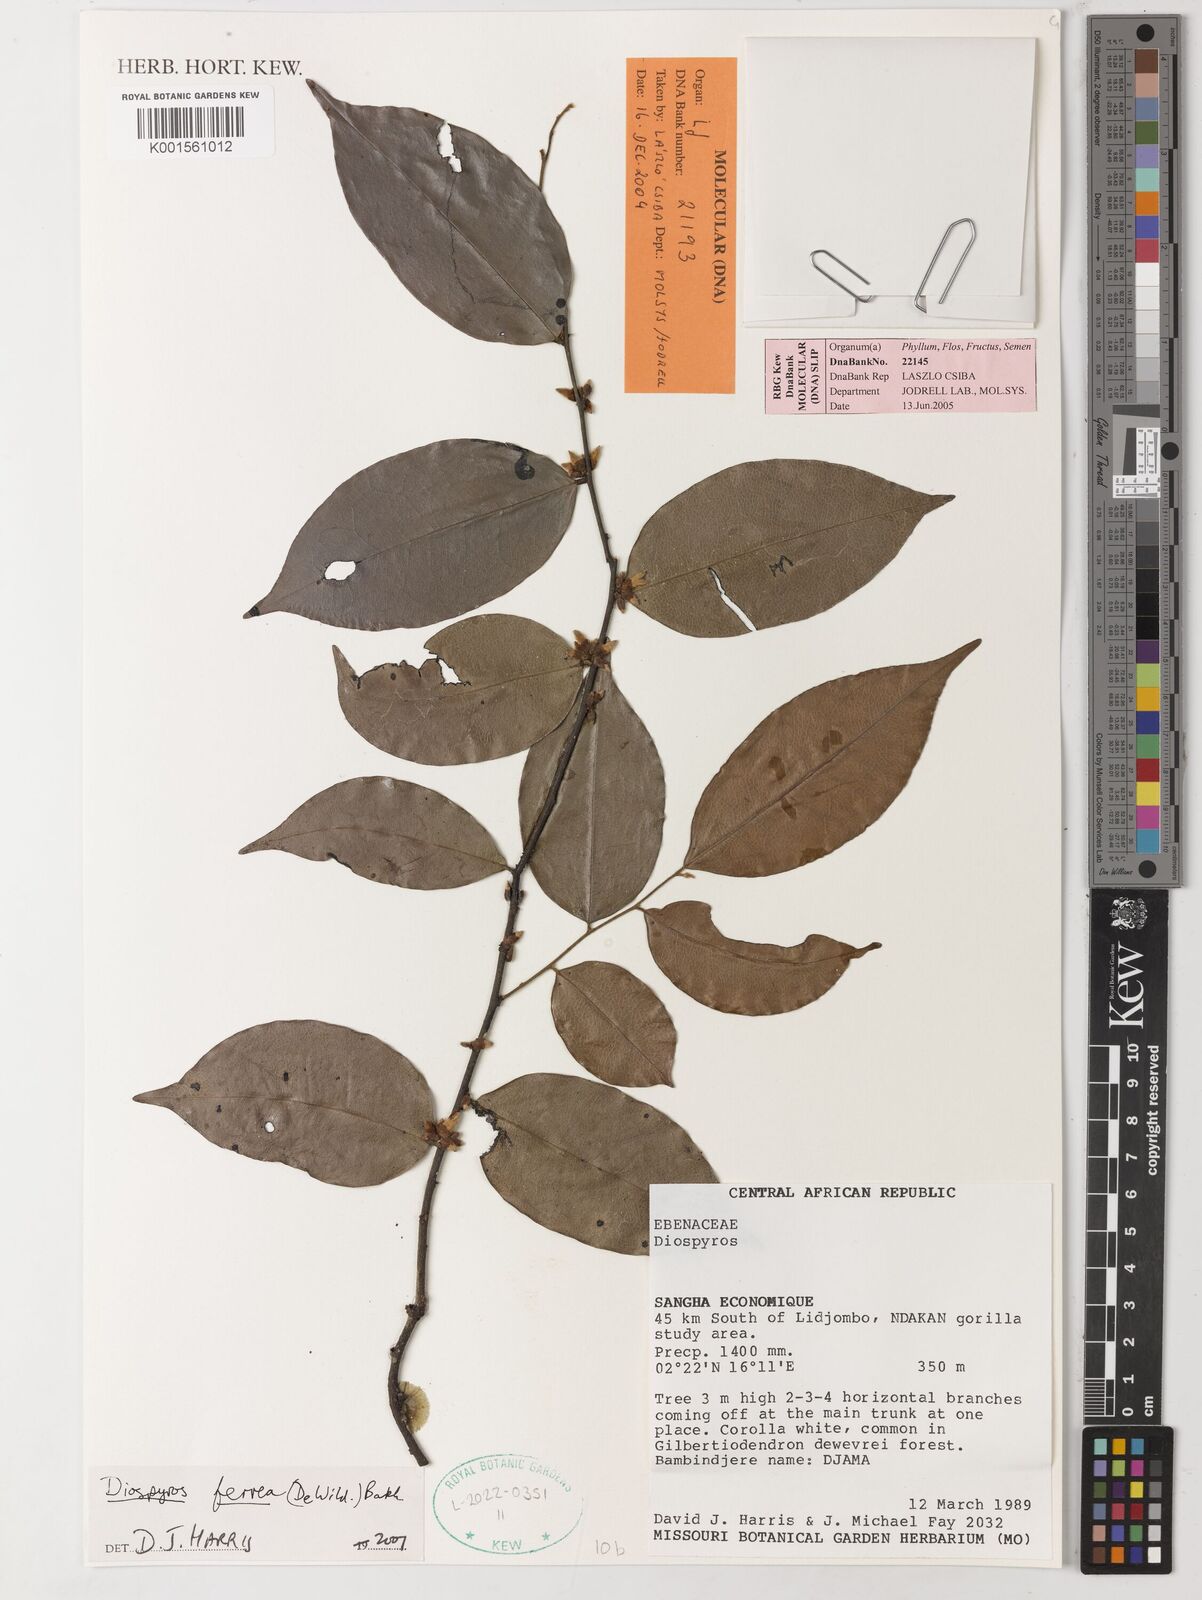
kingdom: Plantae
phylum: Tracheophyta
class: Magnoliopsida
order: Ericales
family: Ebenaceae
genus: Diospyros
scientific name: Diospyros ferrea
